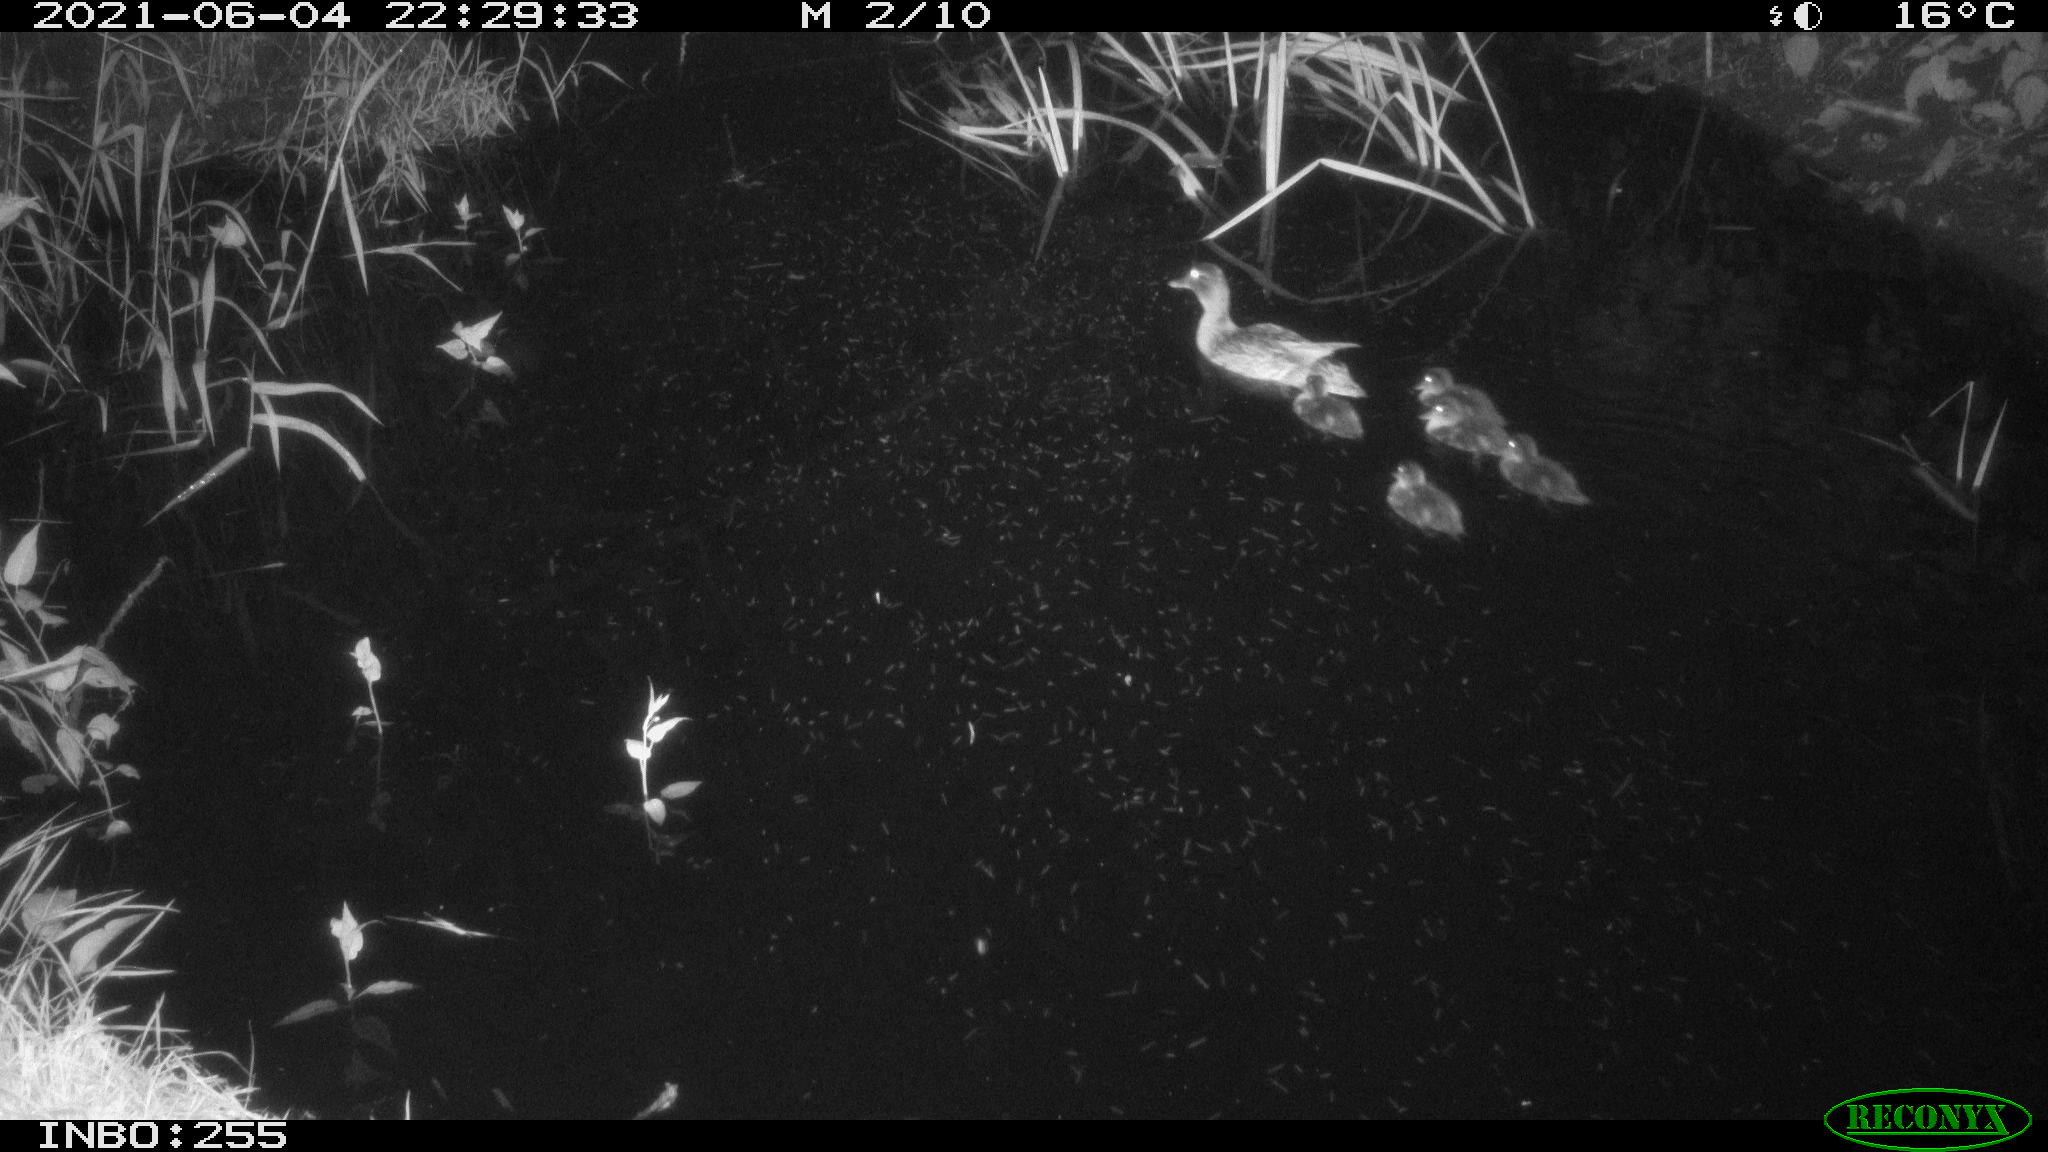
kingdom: Animalia
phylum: Chordata
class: Aves
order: Anseriformes
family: Anatidae
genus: Anas
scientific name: Anas platyrhynchos
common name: Mallard
